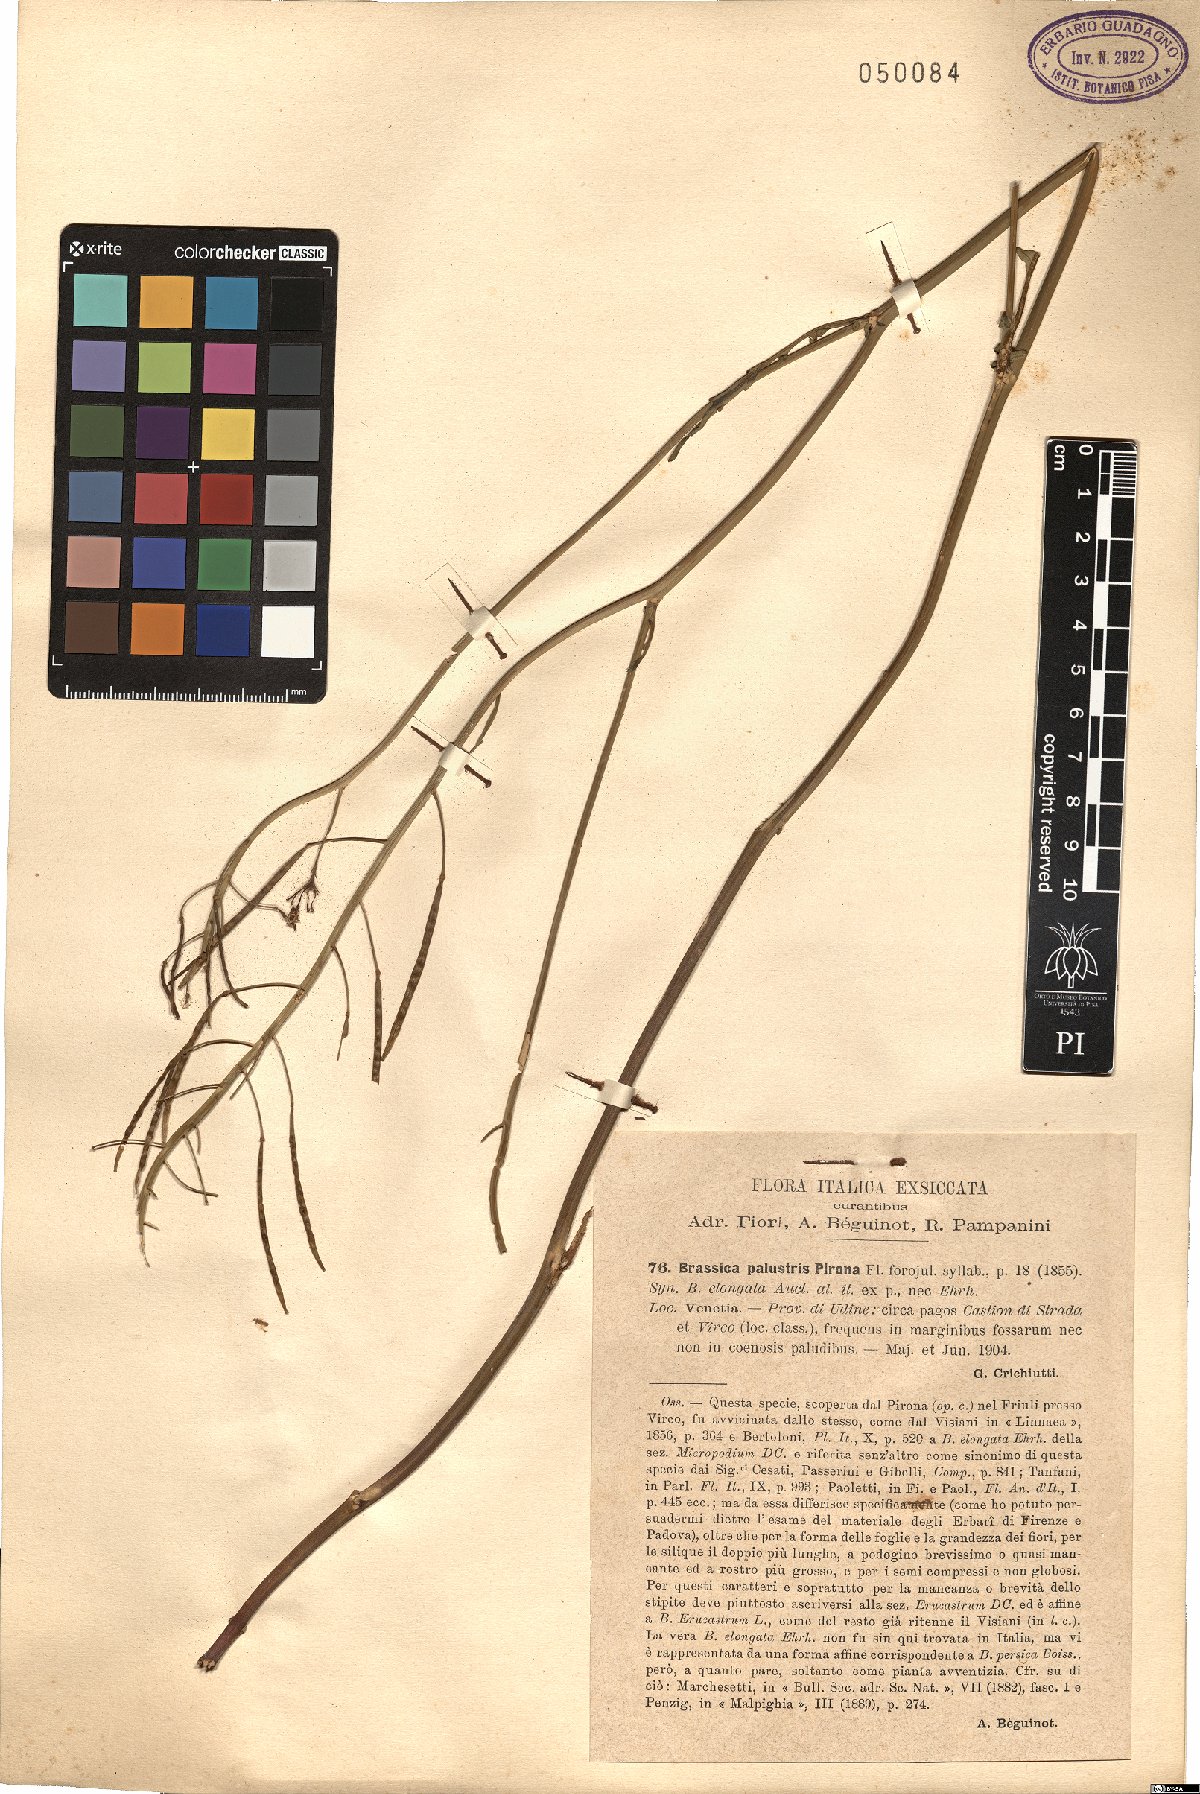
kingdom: Plantae
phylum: Tracheophyta
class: Magnoliopsida
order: Brassicales
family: Brassicaceae
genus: Erucastrum
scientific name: Erucastrum palustre
